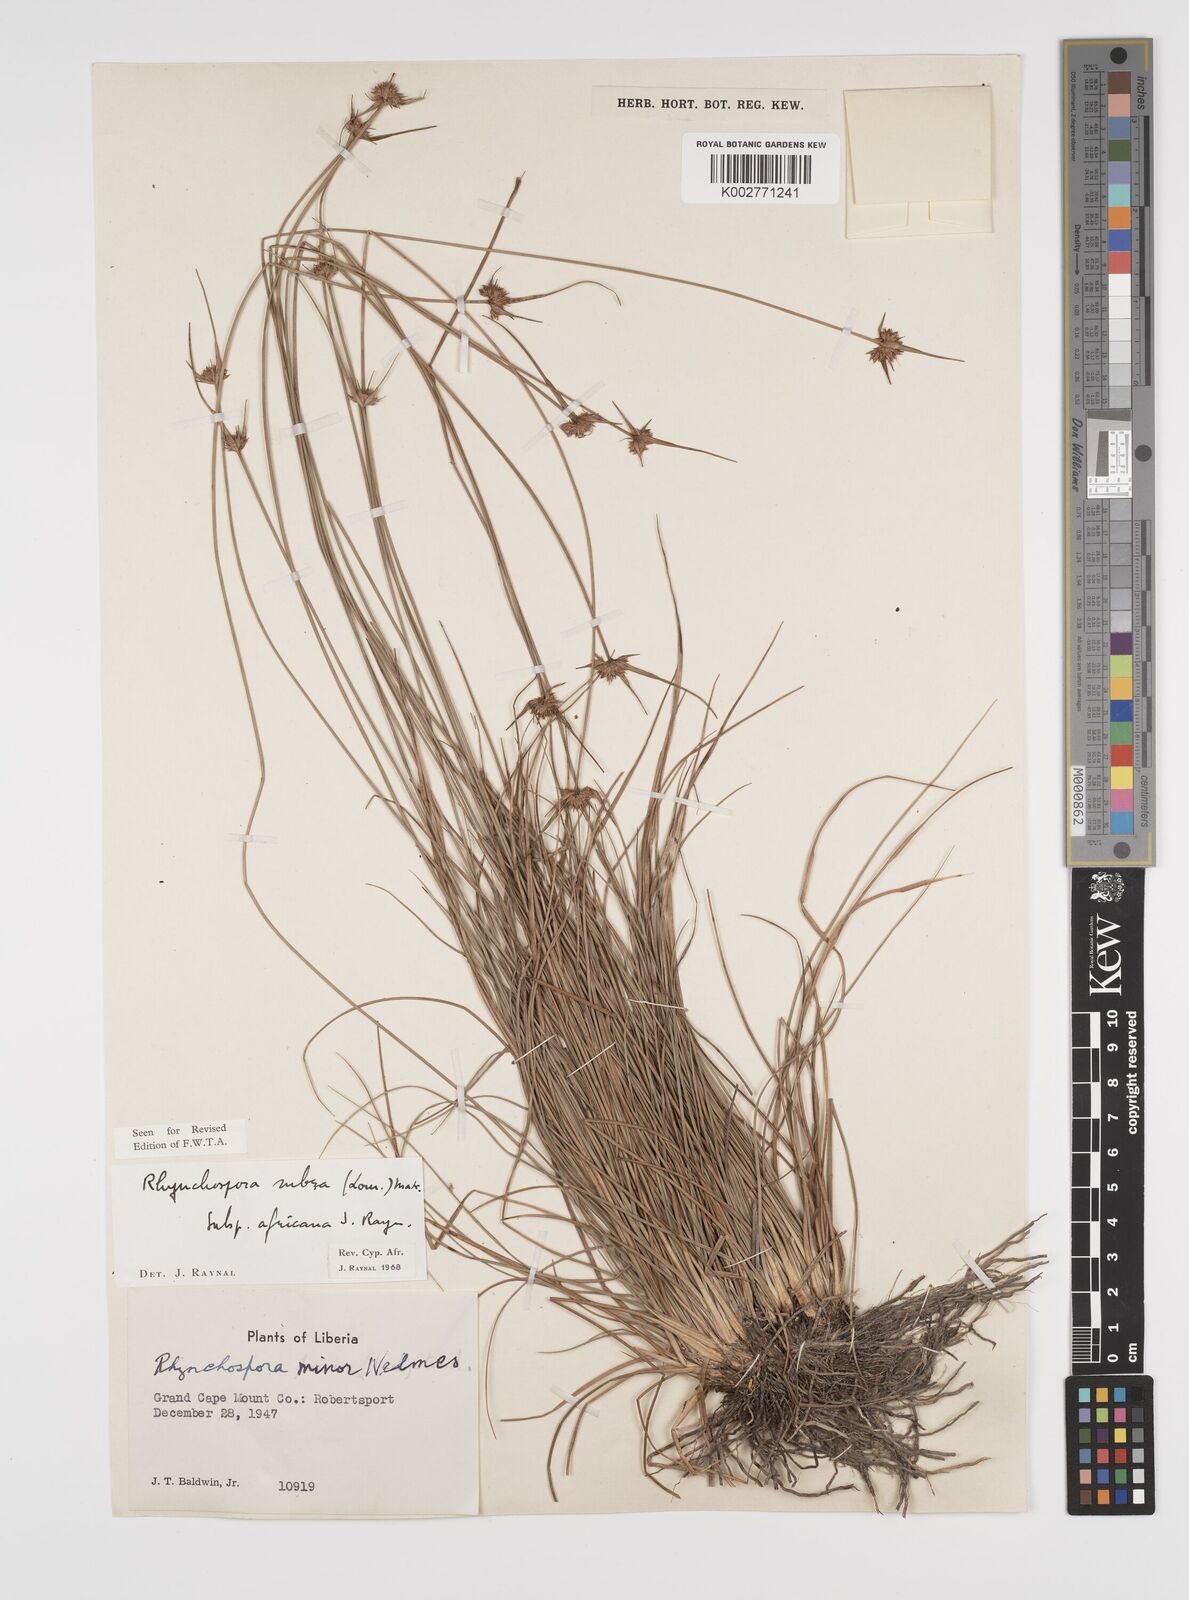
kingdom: Plantae
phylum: Tracheophyta
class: Liliopsida
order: Poales
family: Cyperaceae
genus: Rhynchospora
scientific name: Rhynchospora rubra
